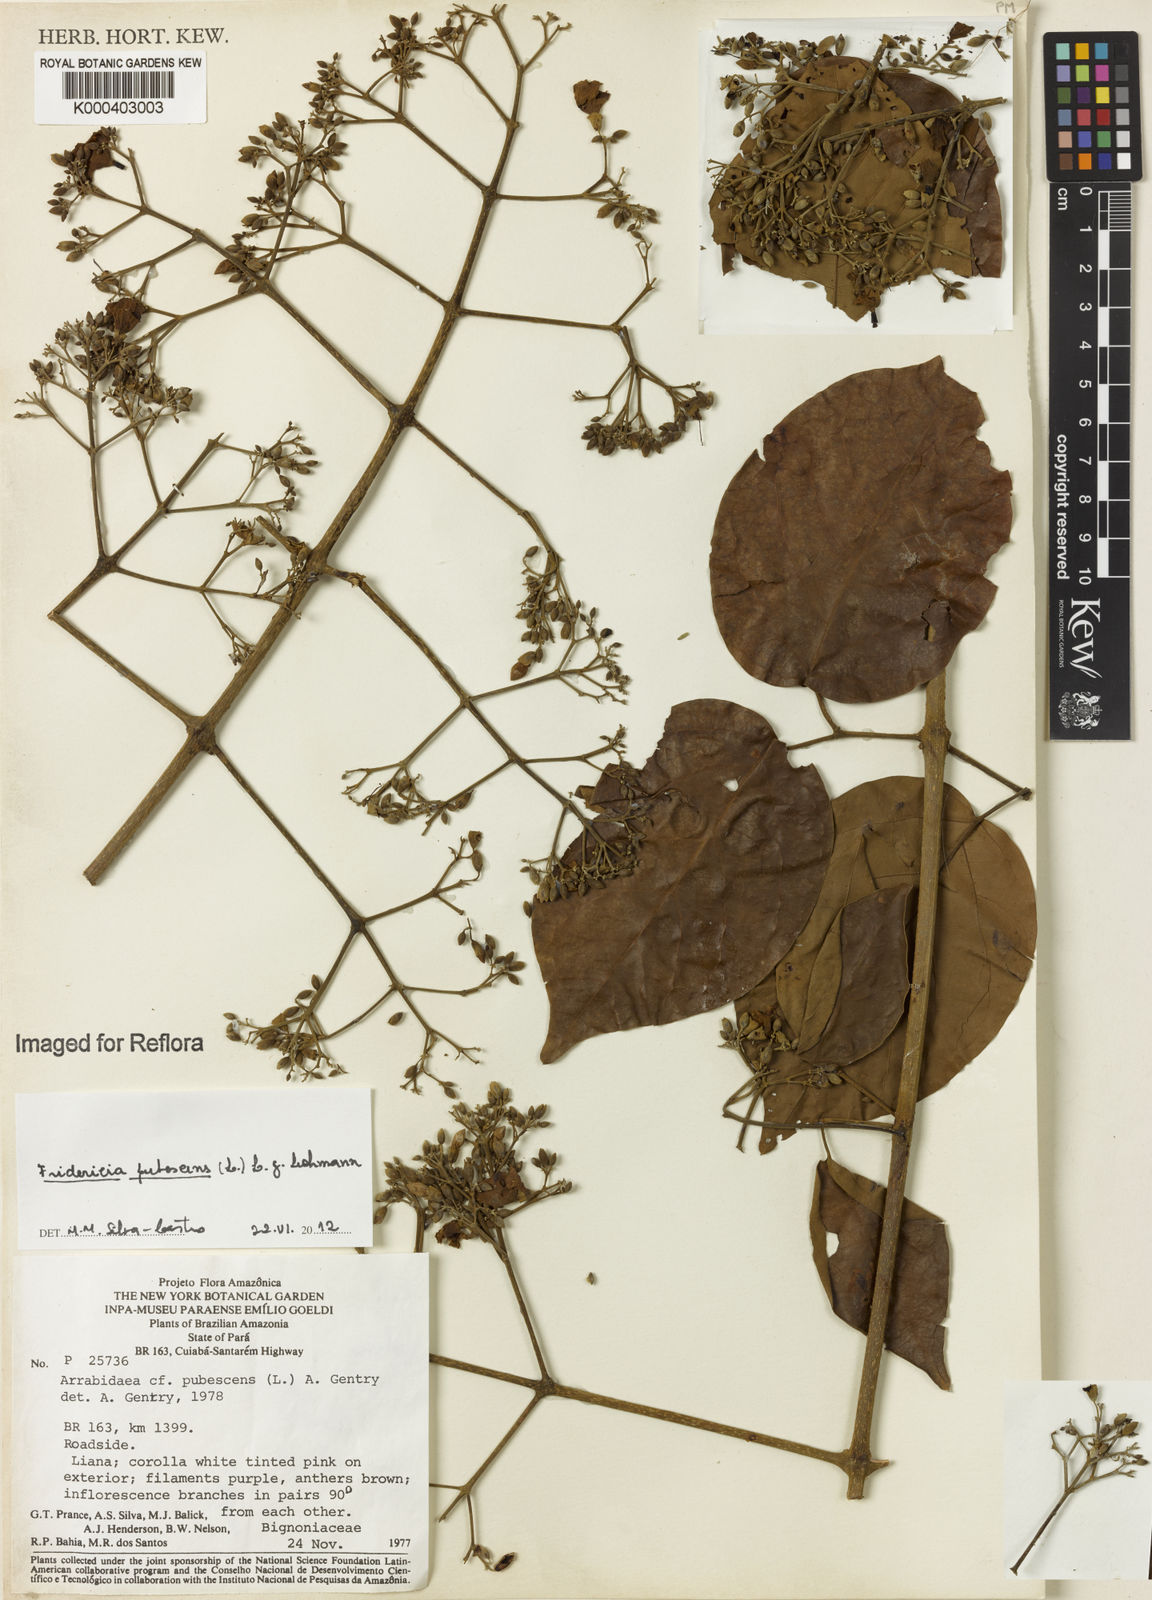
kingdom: Plantae
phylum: Tracheophyta
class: Magnoliopsida
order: Lamiales
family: Bignoniaceae
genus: Fridericia
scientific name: Fridericia pubescens
